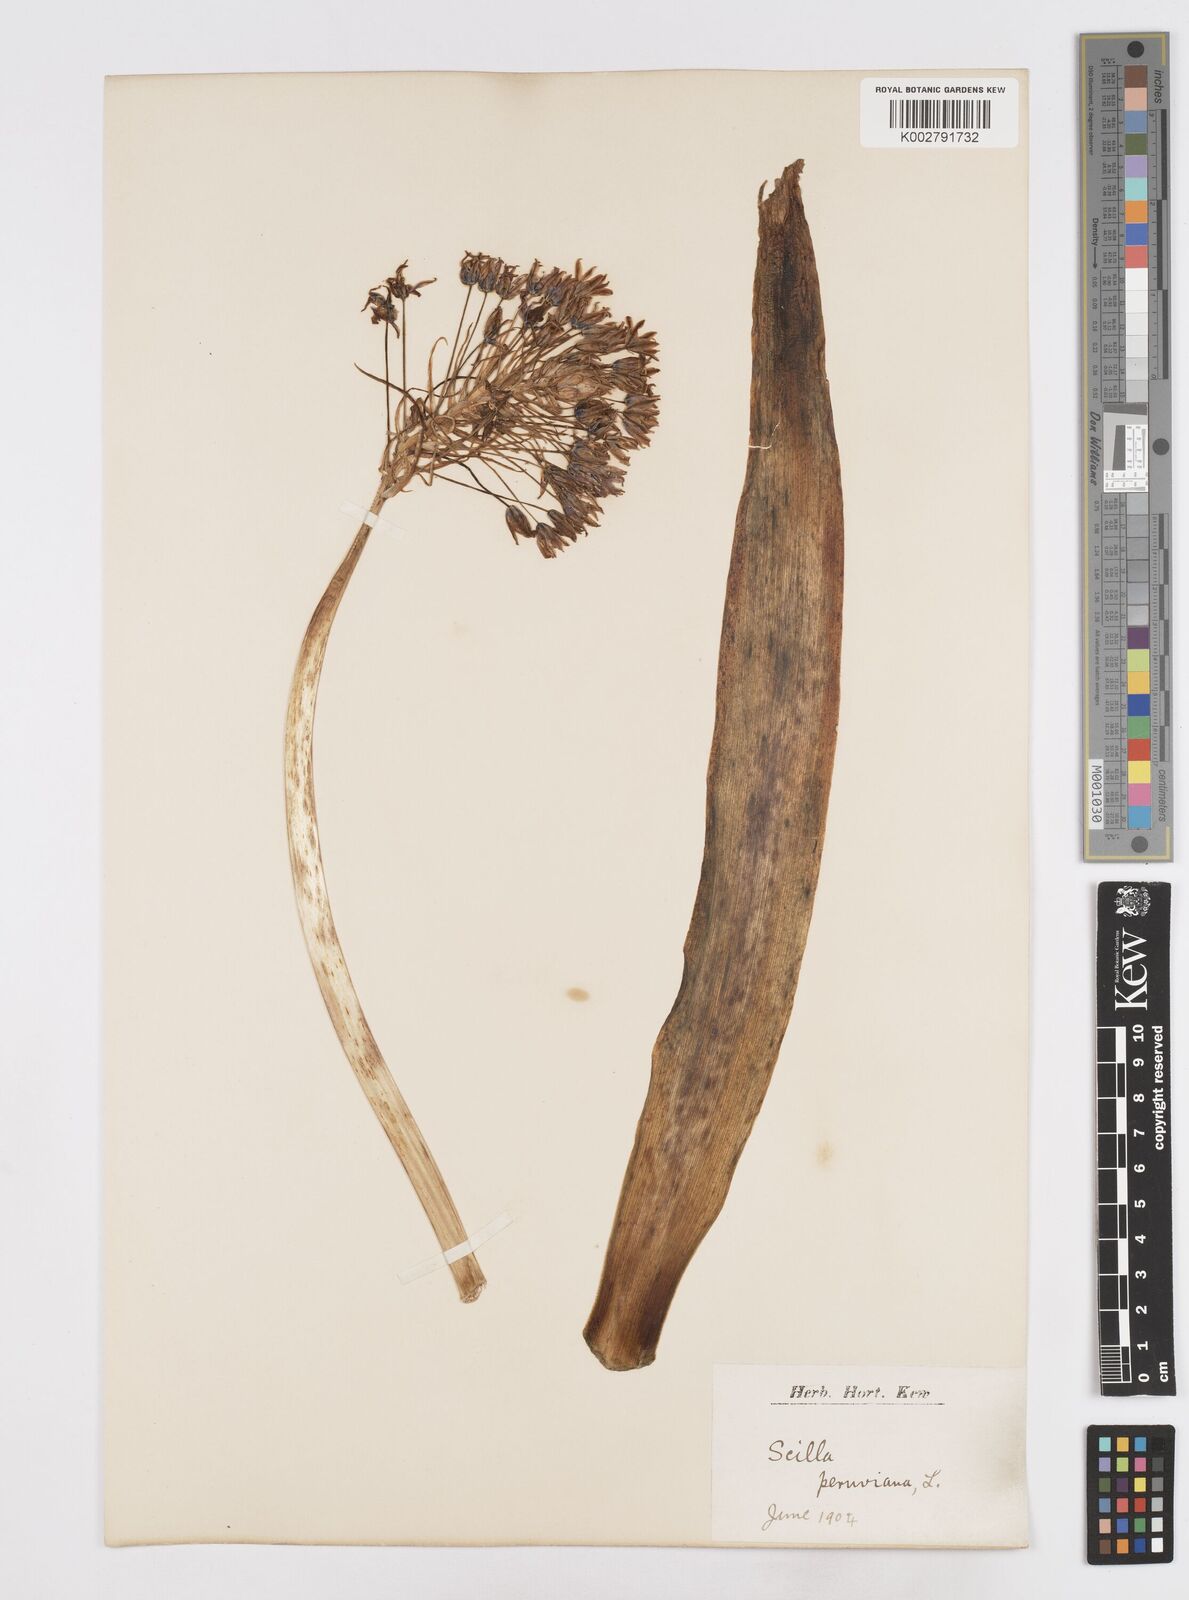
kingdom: Plantae
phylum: Tracheophyta
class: Liliopsida
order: Asparagales
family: Asparagaceae
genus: Scilla
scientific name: Scilla peruviana
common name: Portuguese squill
